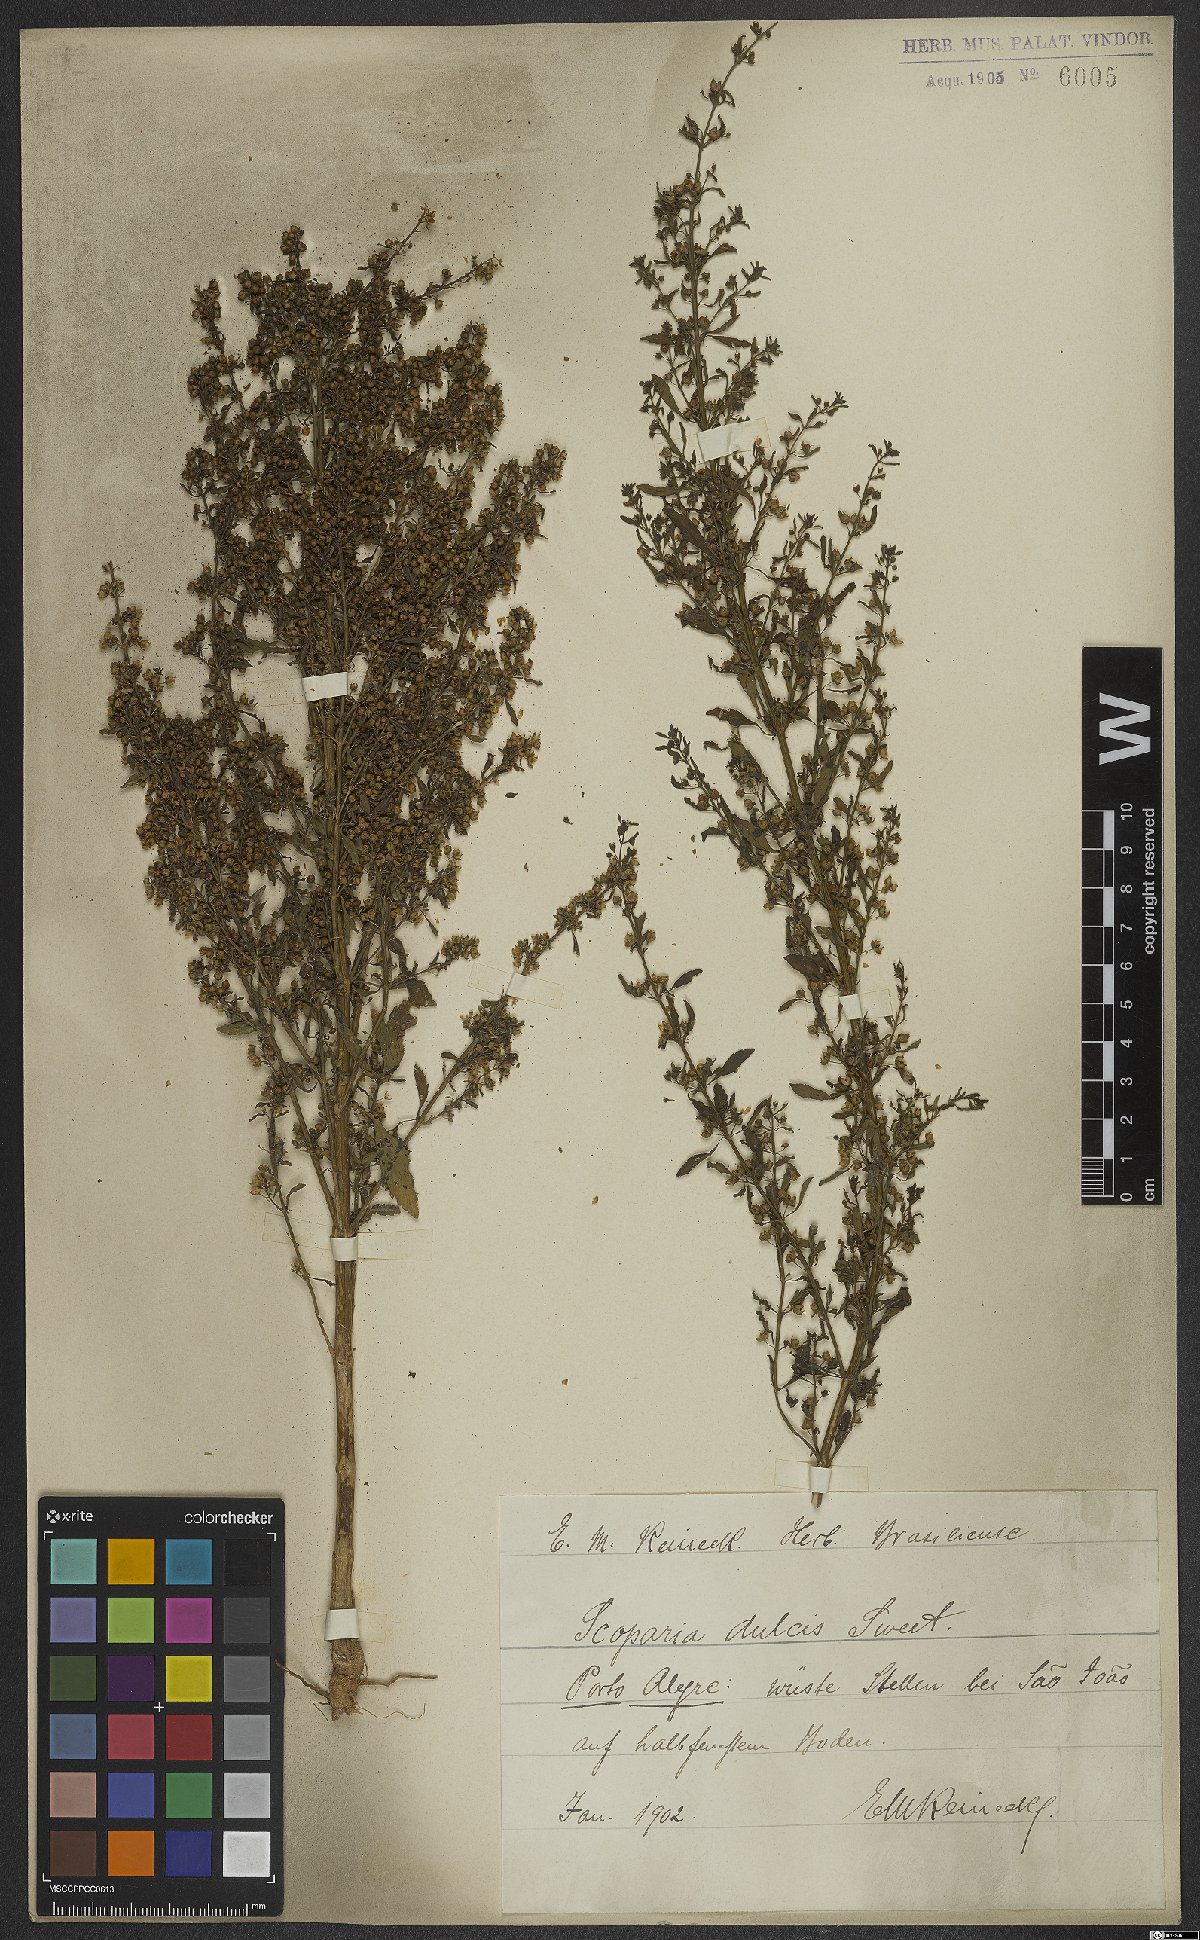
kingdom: Plantae
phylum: Tracheophyta
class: Magnoliopsida
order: Lamiales
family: Plantaginaceae
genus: Scoparia
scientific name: Scoparia dulcis
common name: Scoparia-weed
